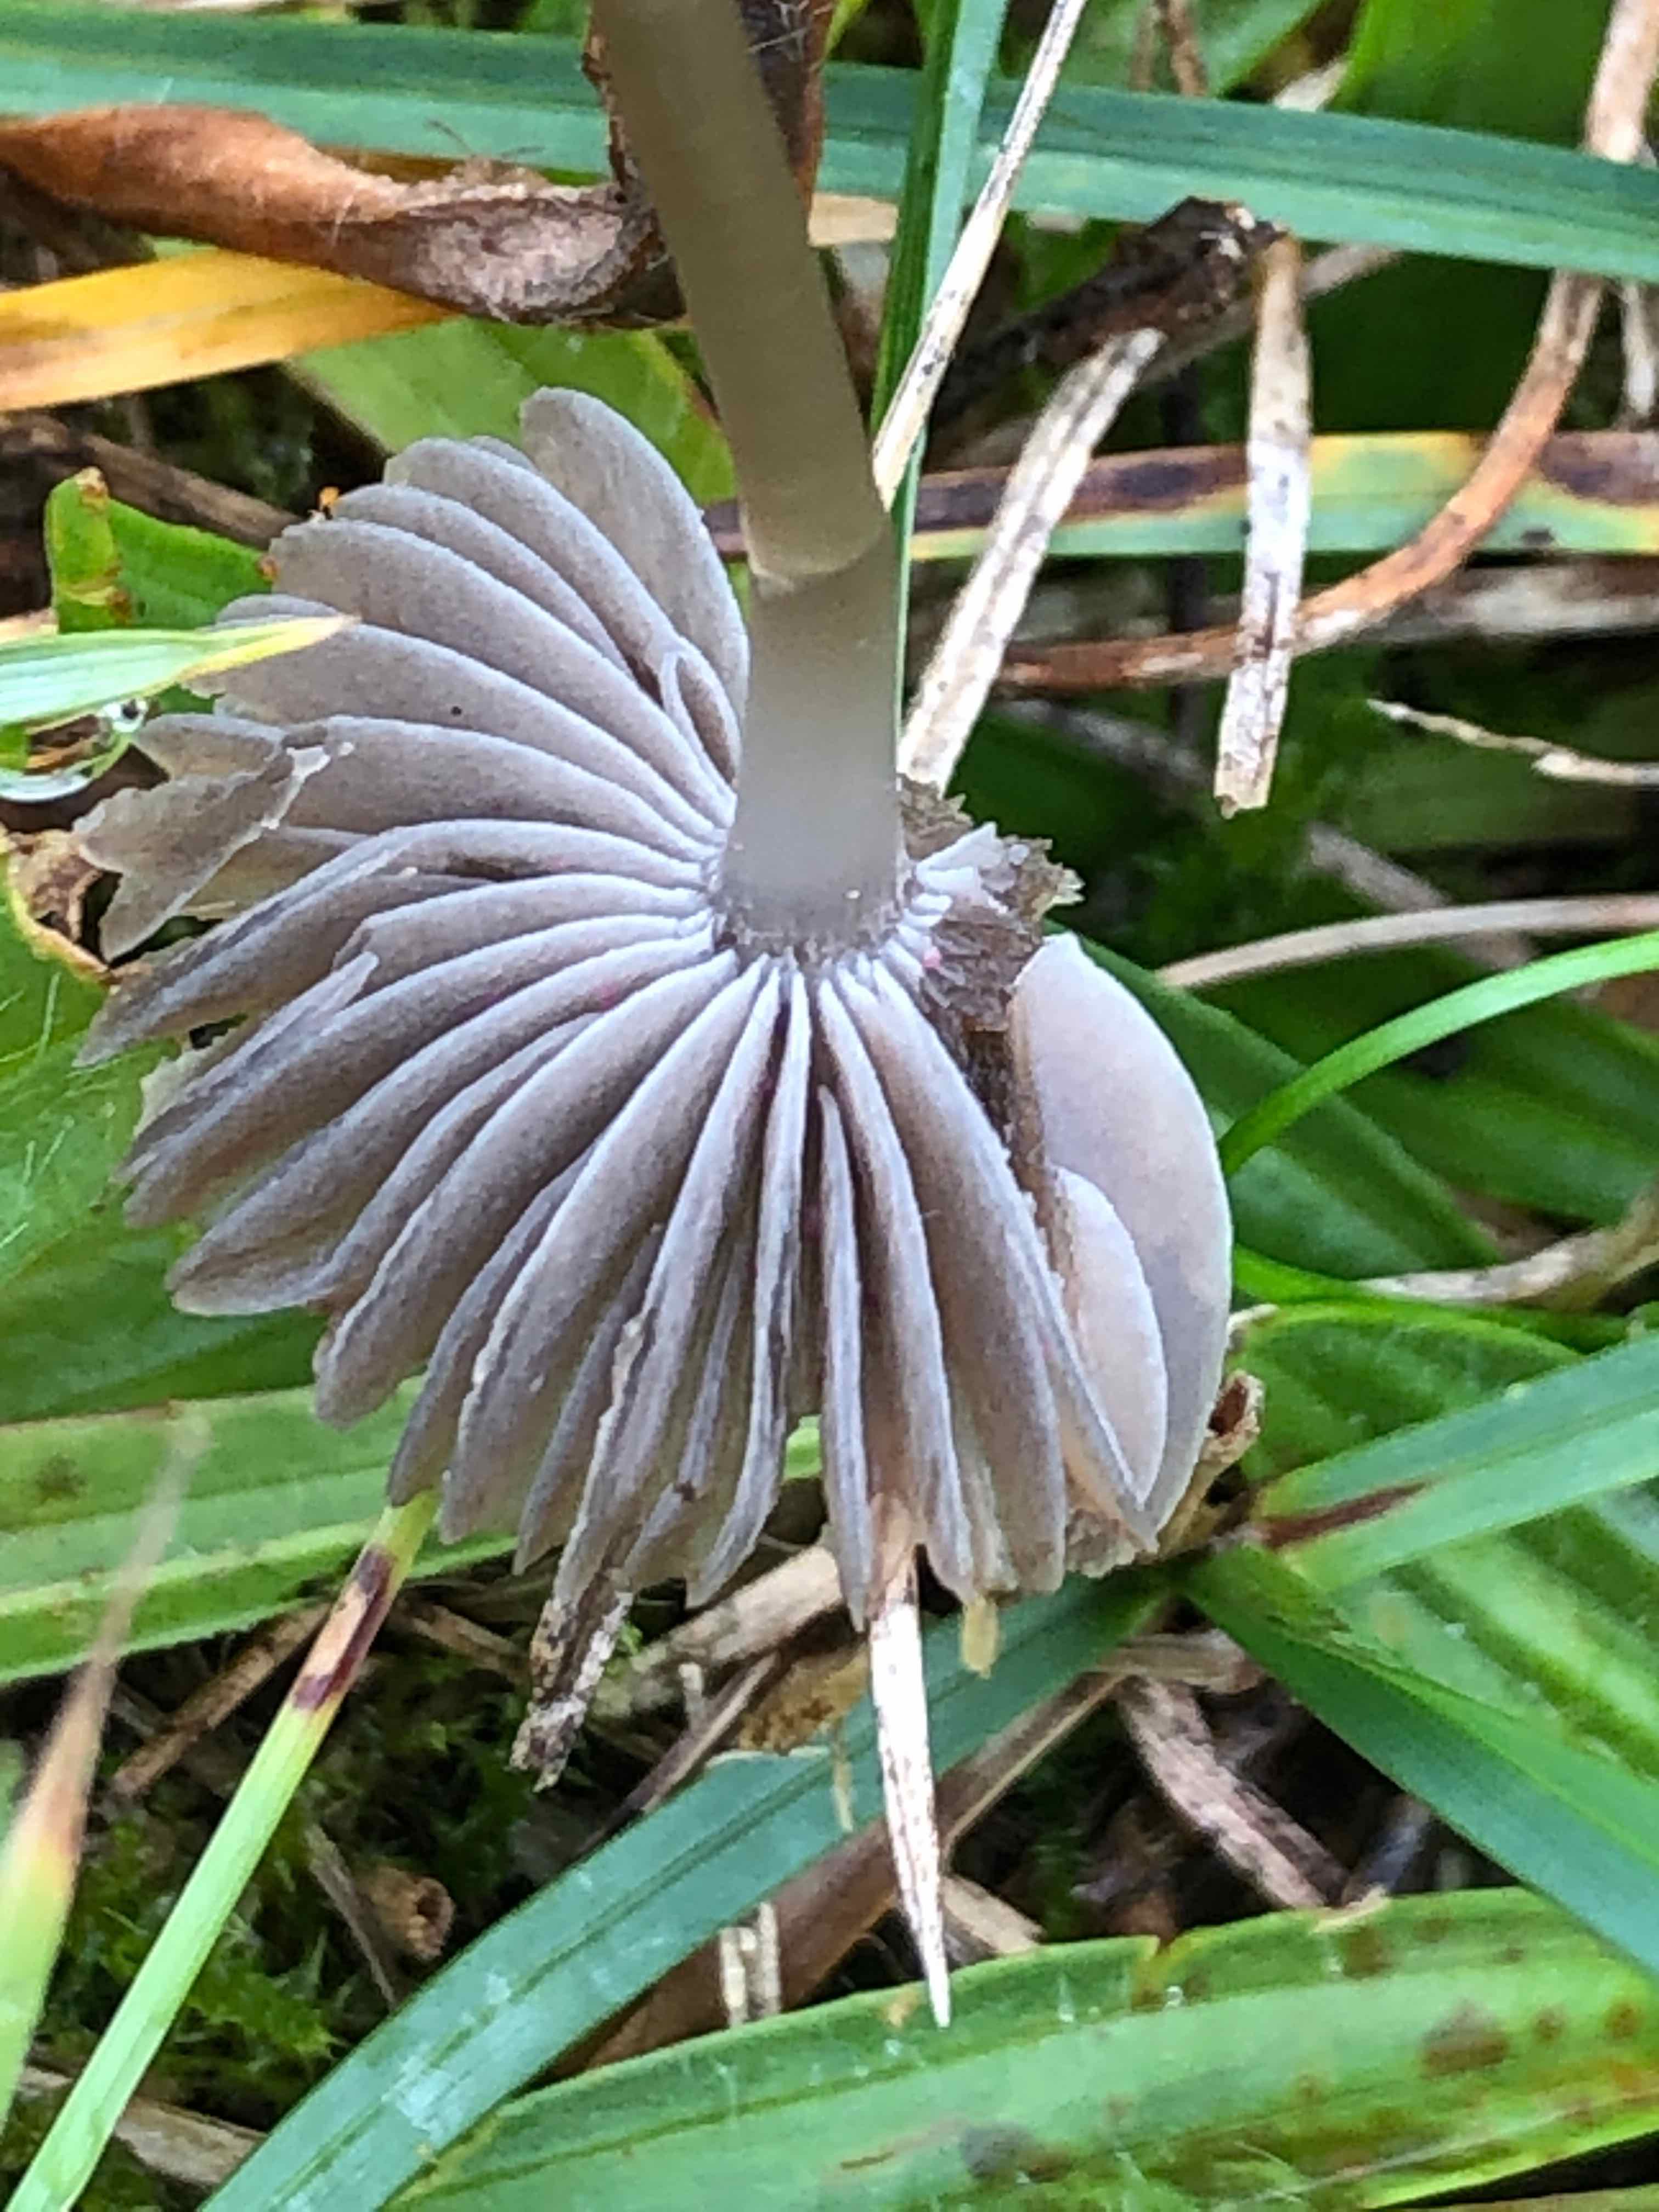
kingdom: Fungi
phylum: Basidiomycota
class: Agaricomycetes
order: Agaricales
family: Mycenaceae
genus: Mycena
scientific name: Mycena
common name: huesvamp
